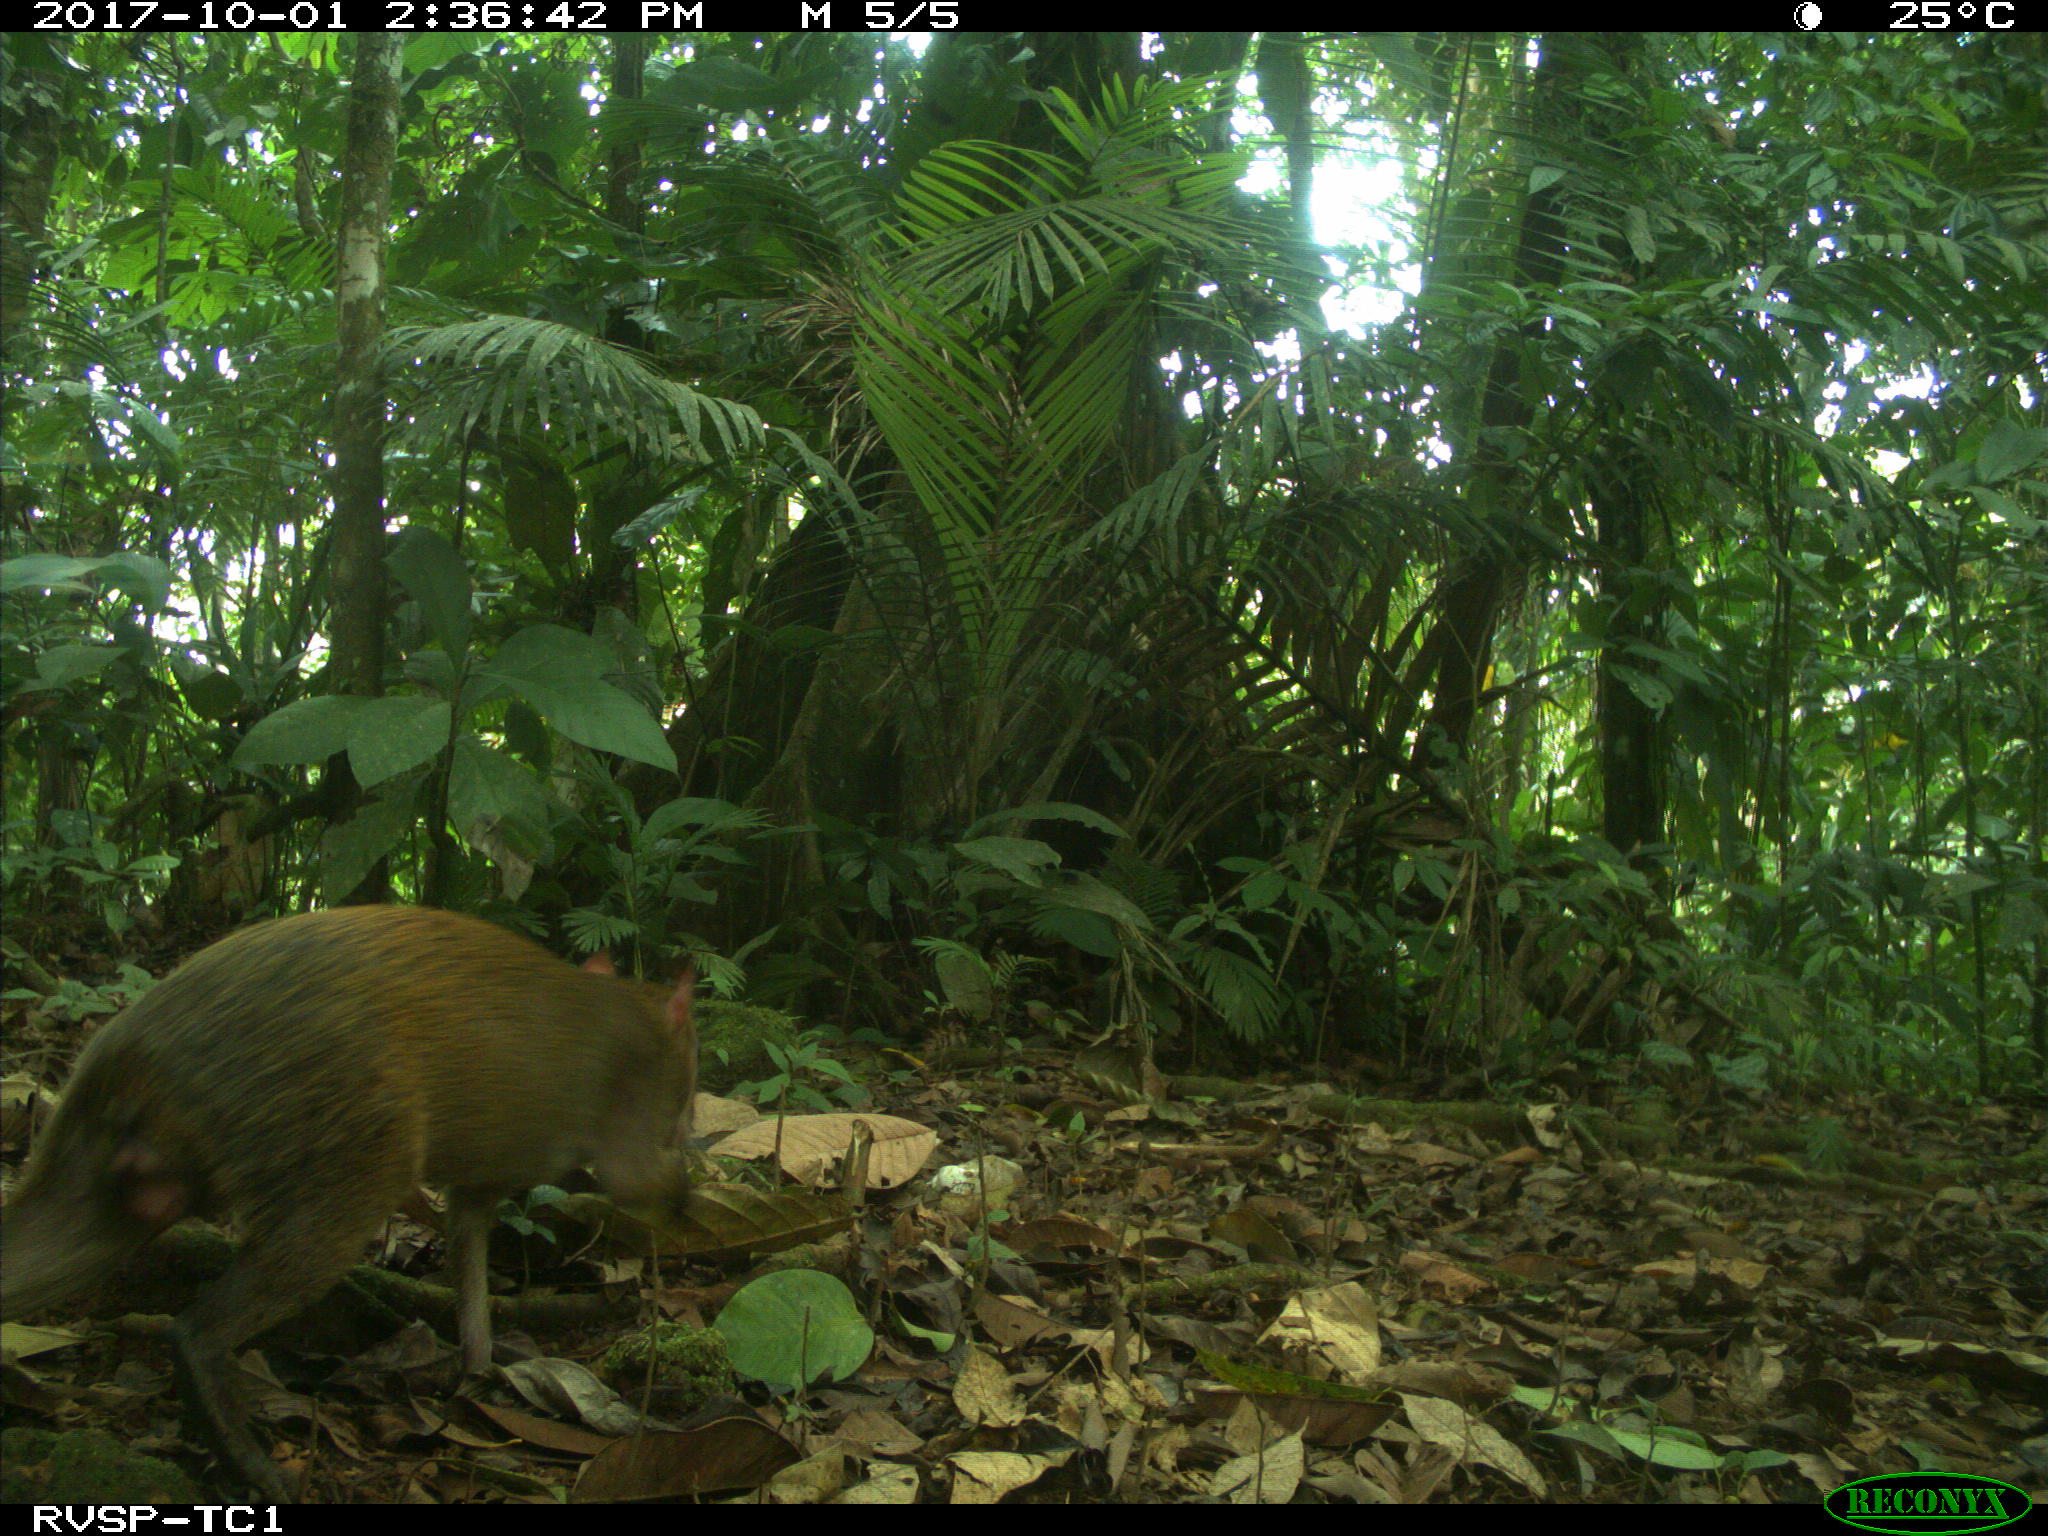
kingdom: Animalia
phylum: Chordata
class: Mammalia
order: Rodentia
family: Dasyproctidae
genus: Dasyprocta
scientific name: Dasyprocta punctata
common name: Central american agouti
